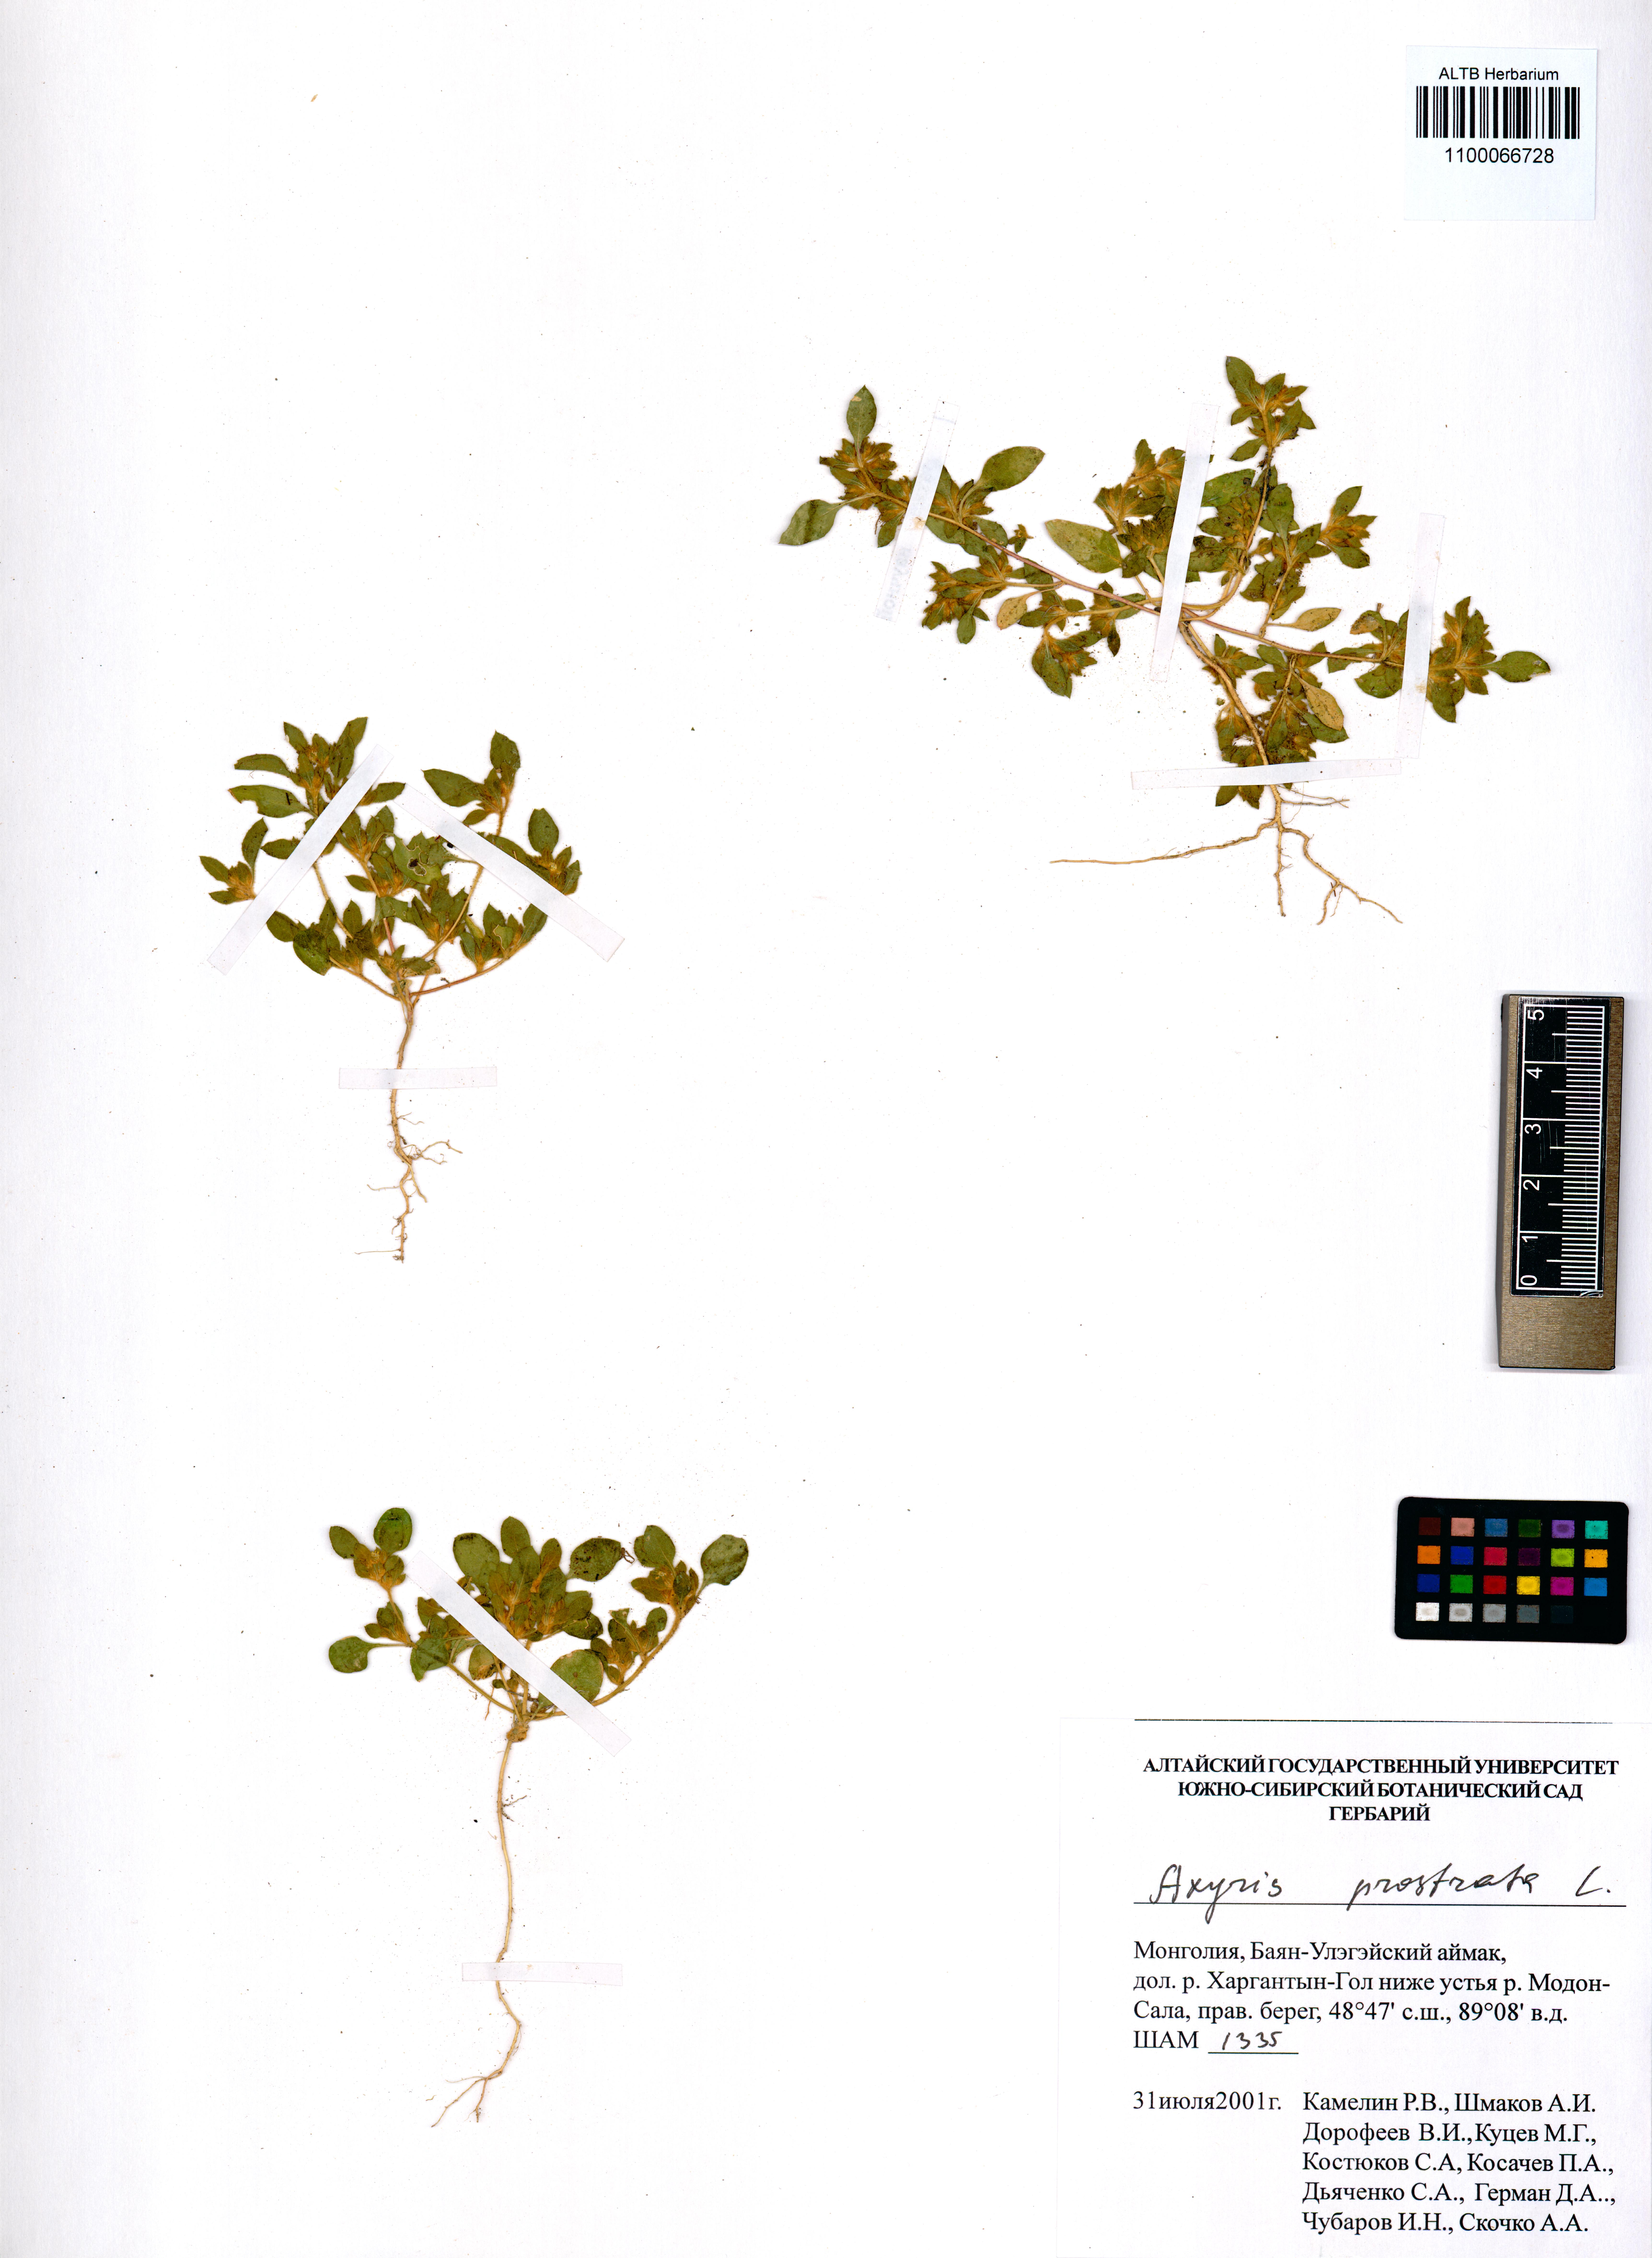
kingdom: Plantae
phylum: Tracheophyta
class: Magnoliopsida
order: Caryophyllales
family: Amaranthaceae
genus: Axyris
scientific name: Axyris prostrata
